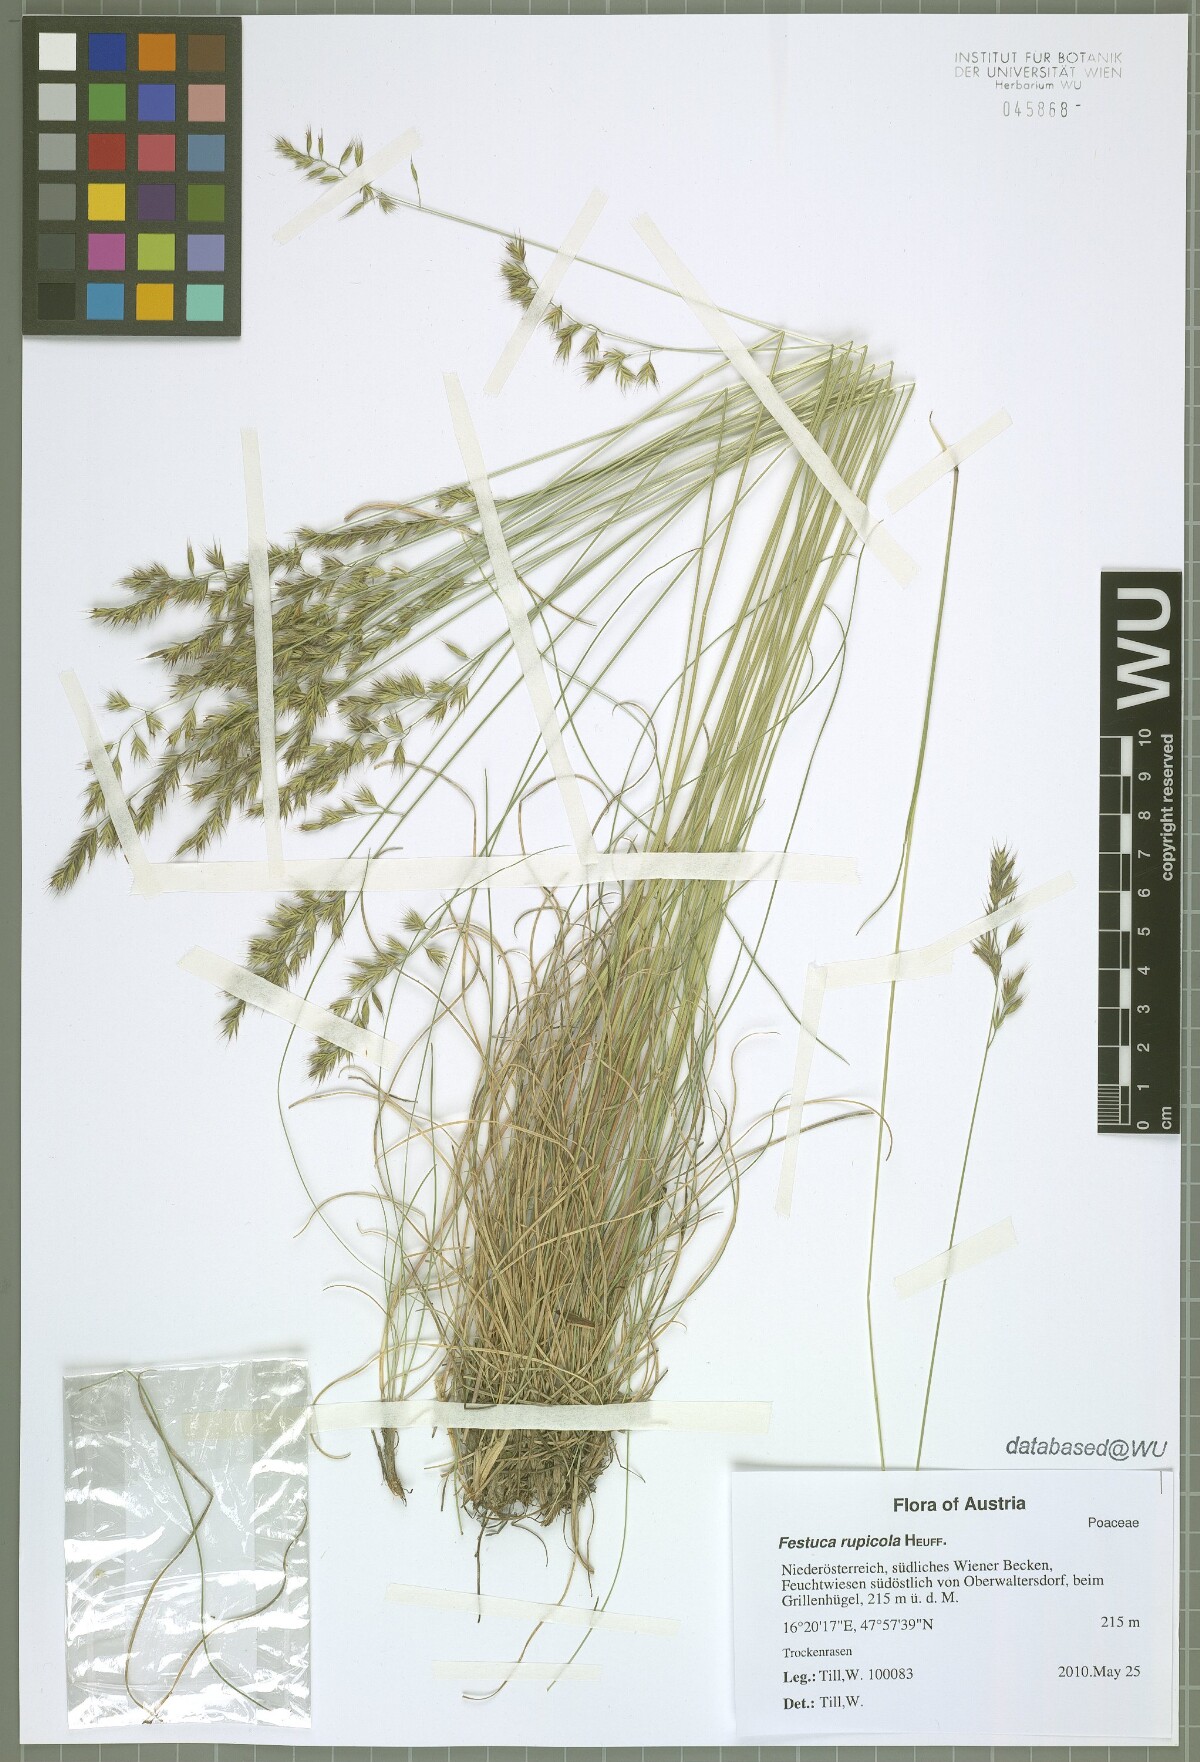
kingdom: Plantae
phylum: Tracheophyta
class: Liliopsida
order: Poales
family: Poaceae
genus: Festuca
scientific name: Festuca rupicola
